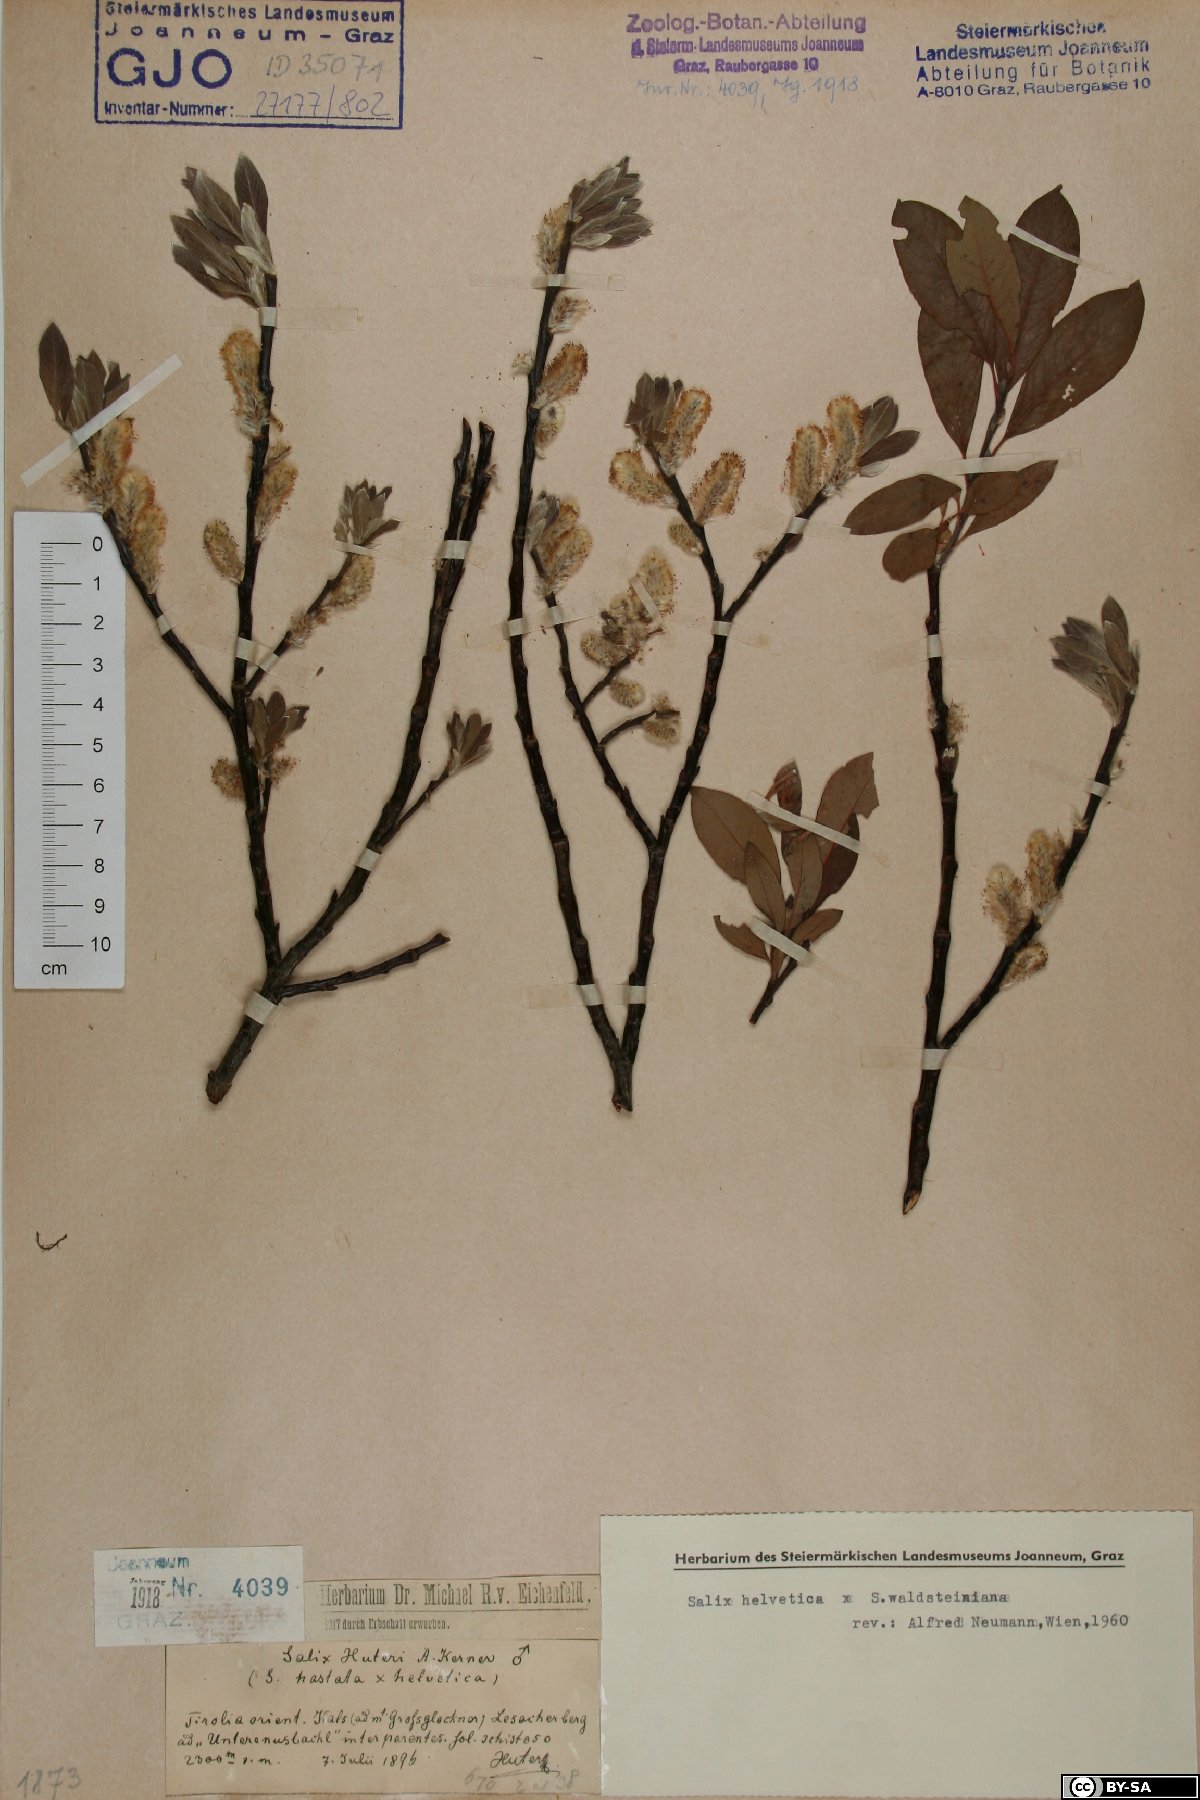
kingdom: Plantae
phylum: Tracheophyta
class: Magnoliopsida
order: Malpighiales
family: Salicaceae
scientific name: Salicaceae
